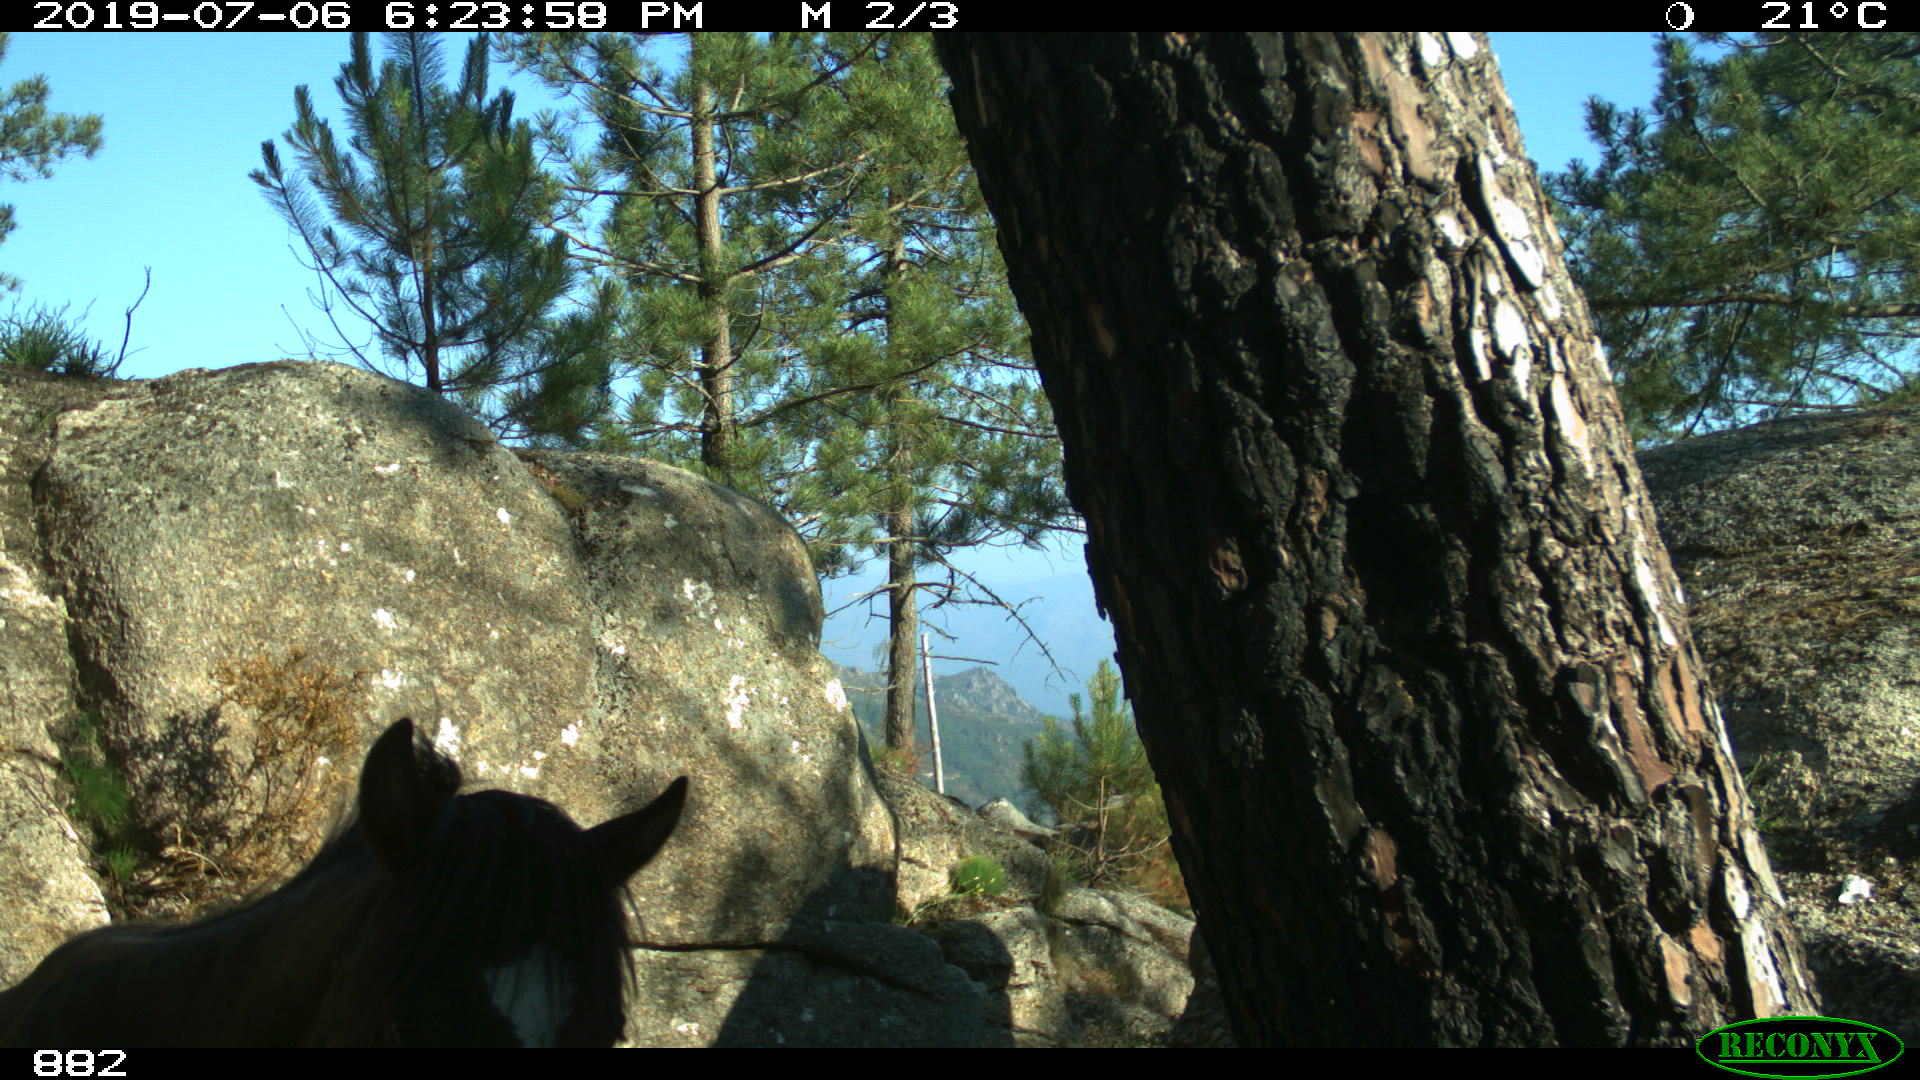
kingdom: Animalia
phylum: Chordata
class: Mammalia
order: Perissodactyla
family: Equidae
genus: Equus
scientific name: Equus caballus
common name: Horse
